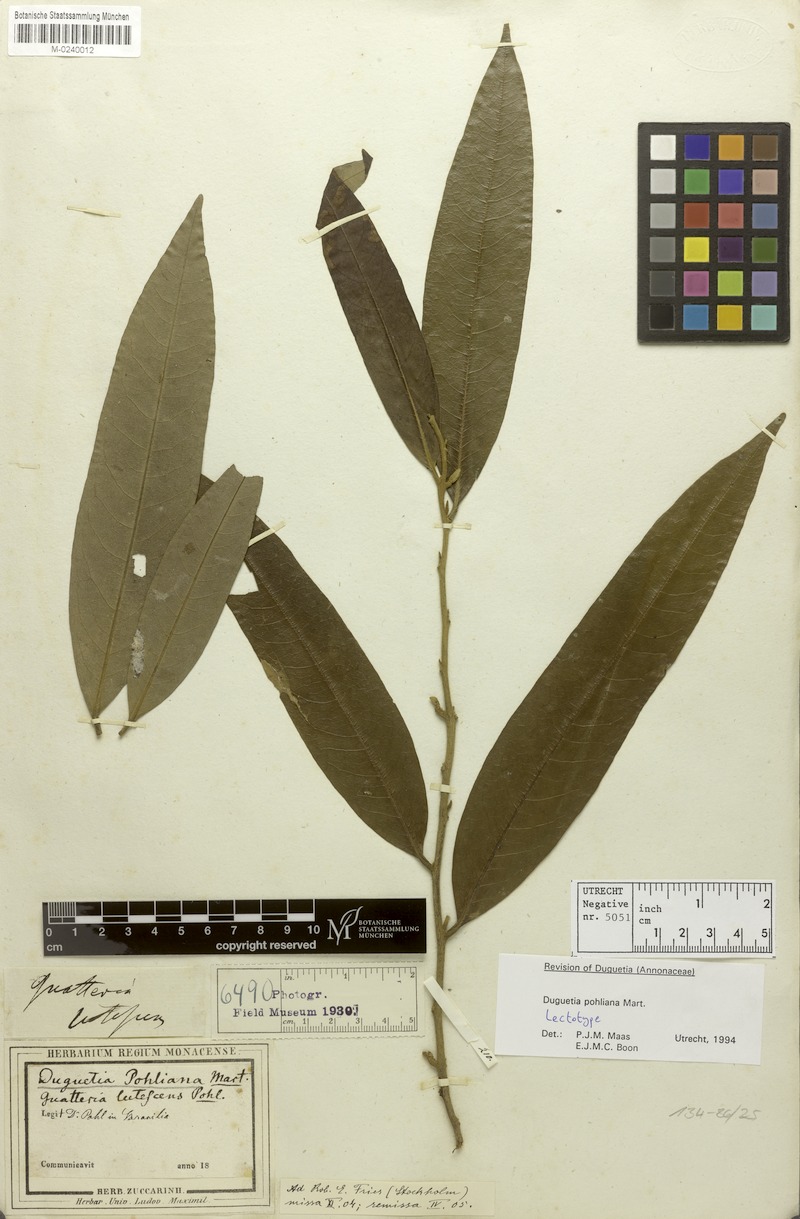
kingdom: Plantae
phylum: Tracheophyta
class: Magnoliopsida
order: Magnoliales
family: Annonaceae
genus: Duguetia
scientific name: Duguetia pohliana
